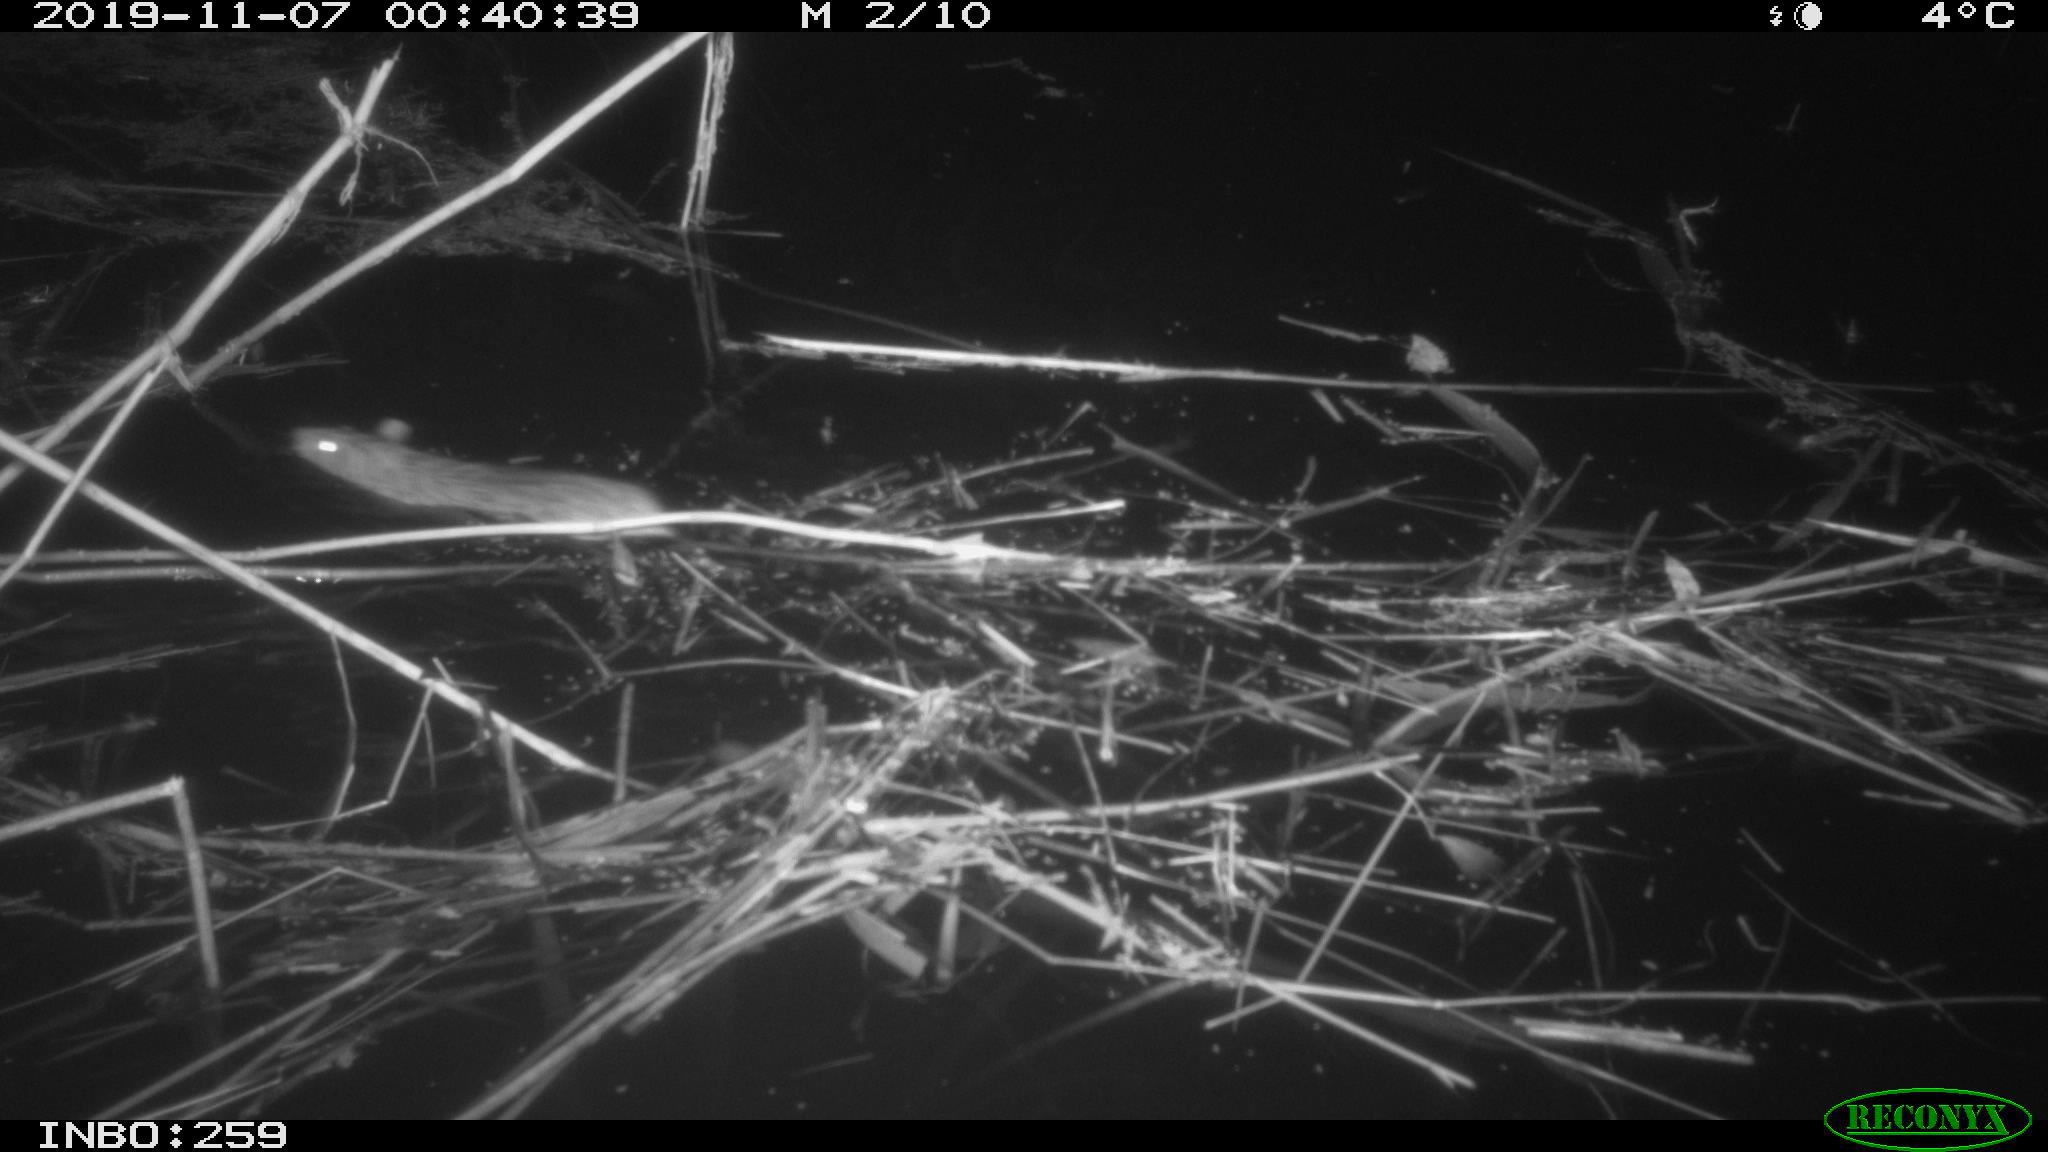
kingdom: Animalia
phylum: Chordata
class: Mammalia
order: Rodentia
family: Cricetidae
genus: Ondatra
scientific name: Ondatra zibethicus
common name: Muskrat
